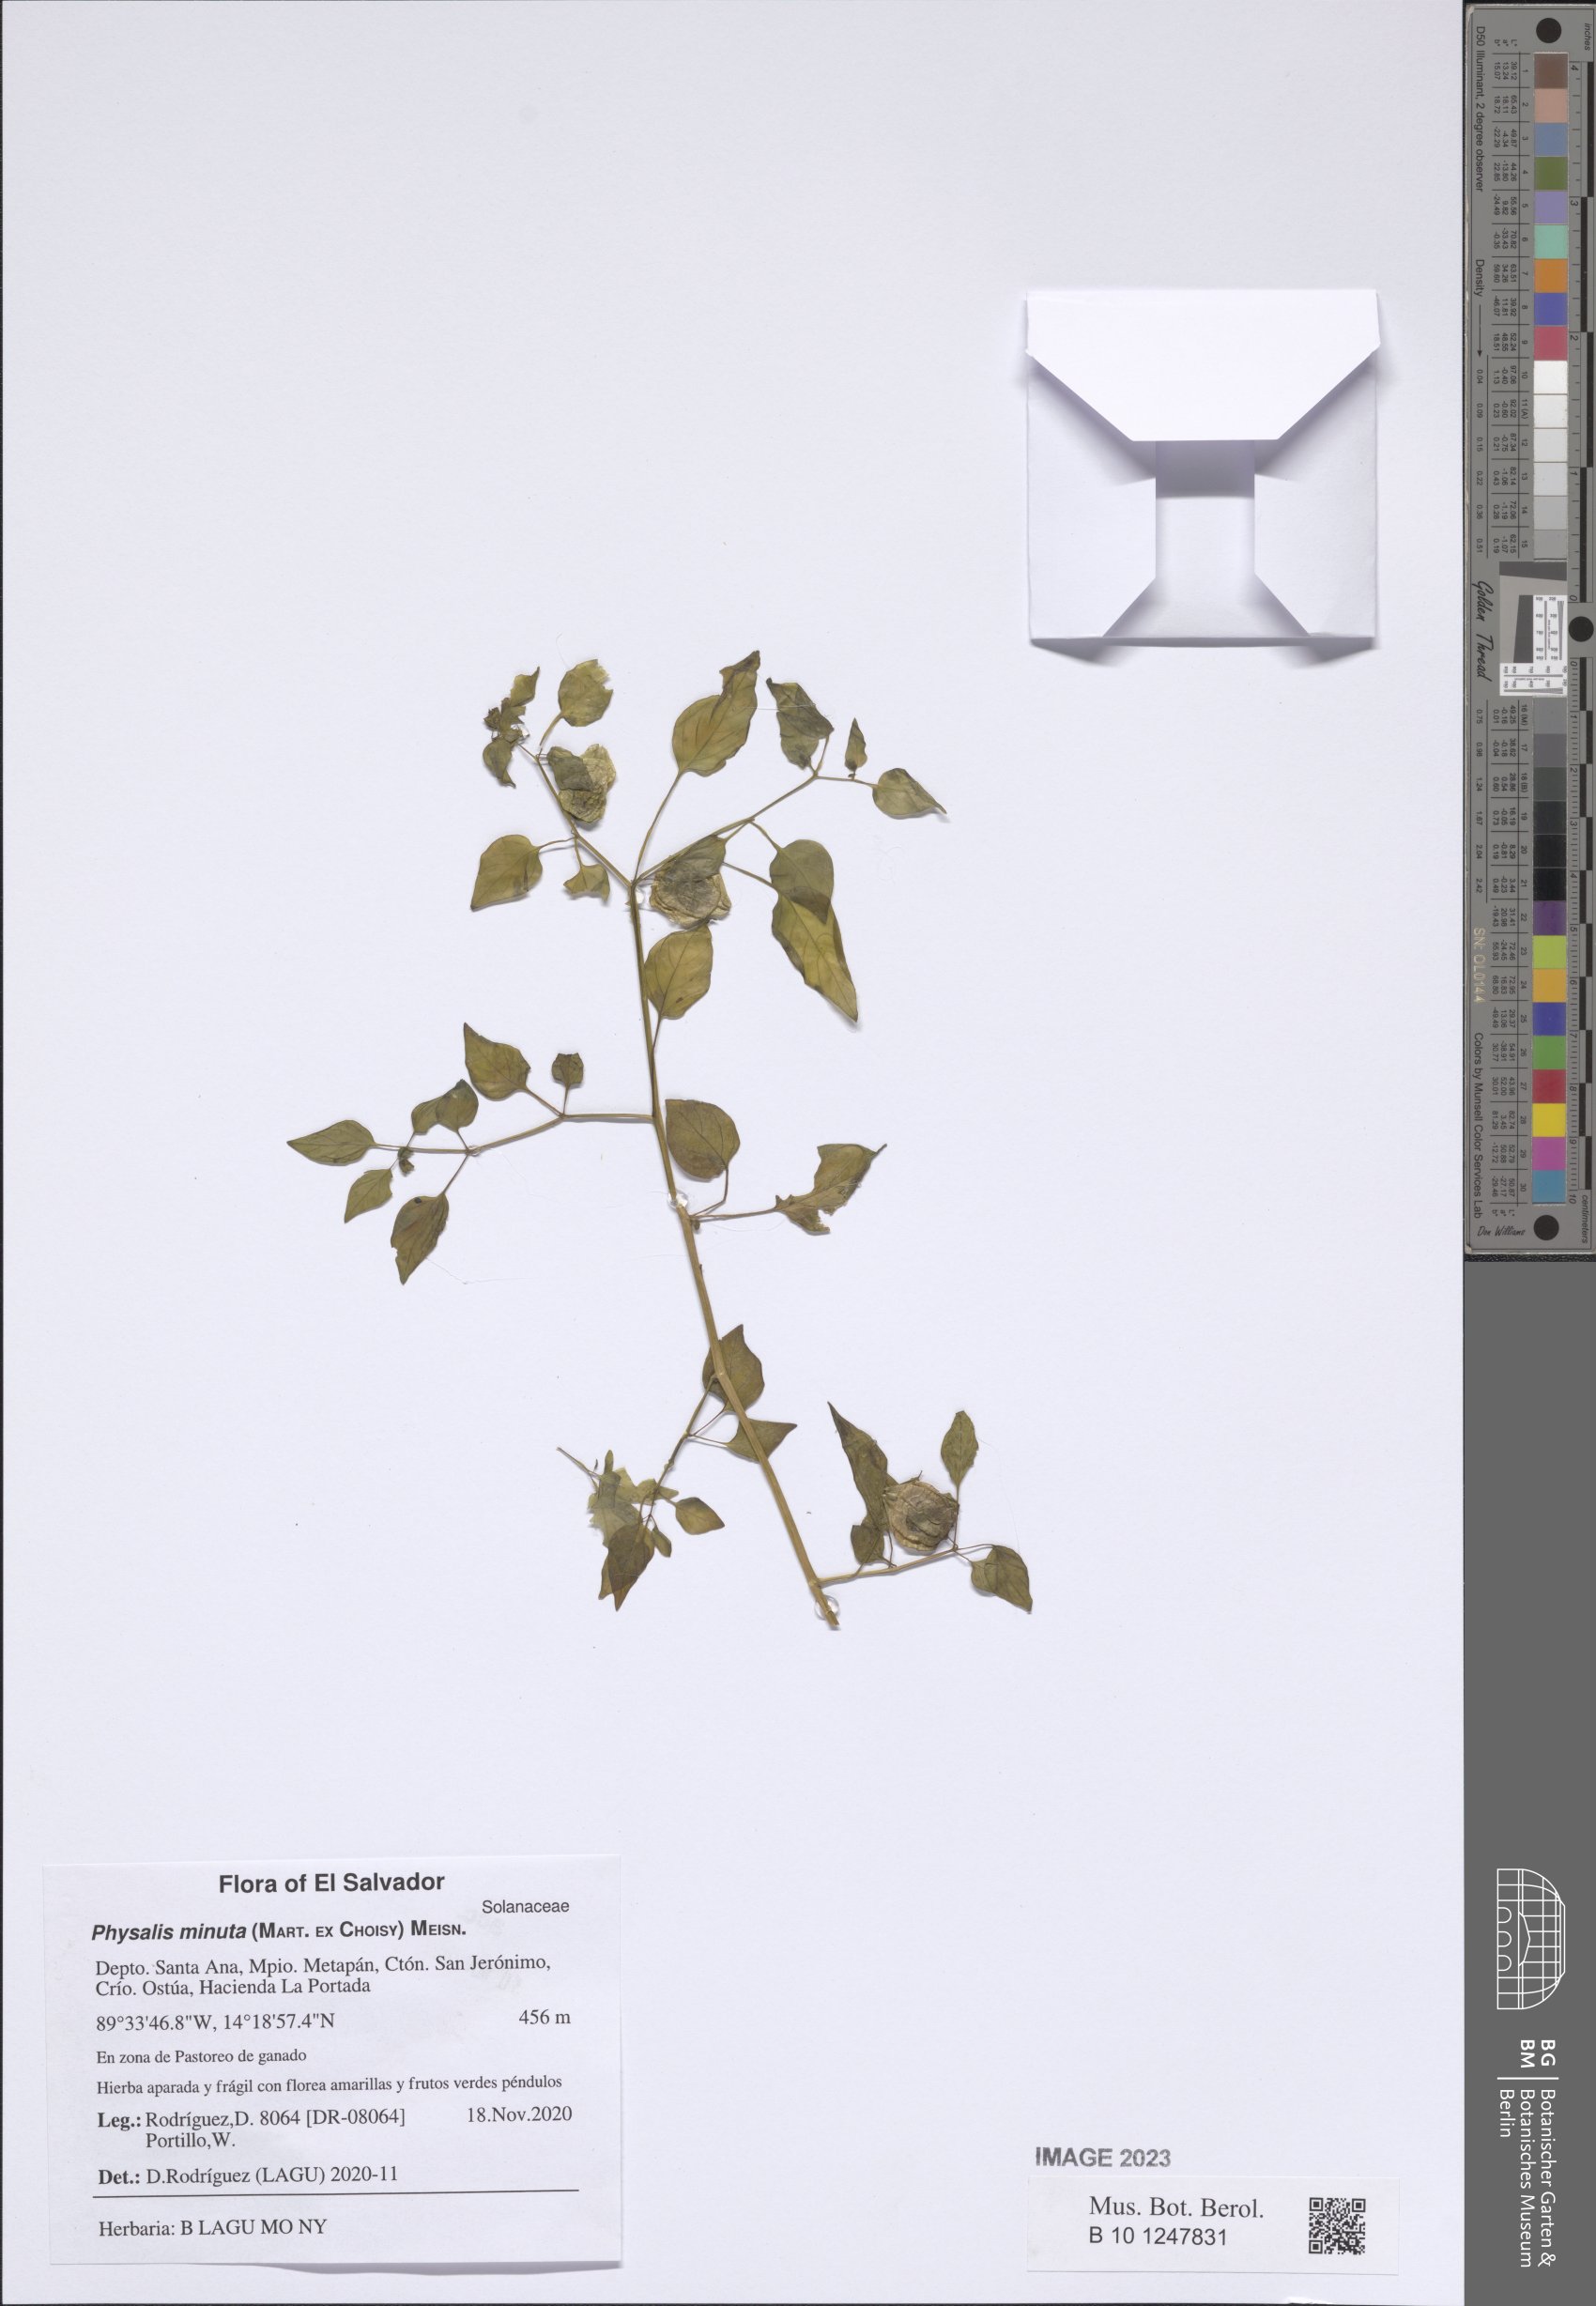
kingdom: Plantae
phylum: Tracheophyta
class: Magnoliopsida
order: Solanales
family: Solanaceae
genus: Physalis
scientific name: Physalis minuta
